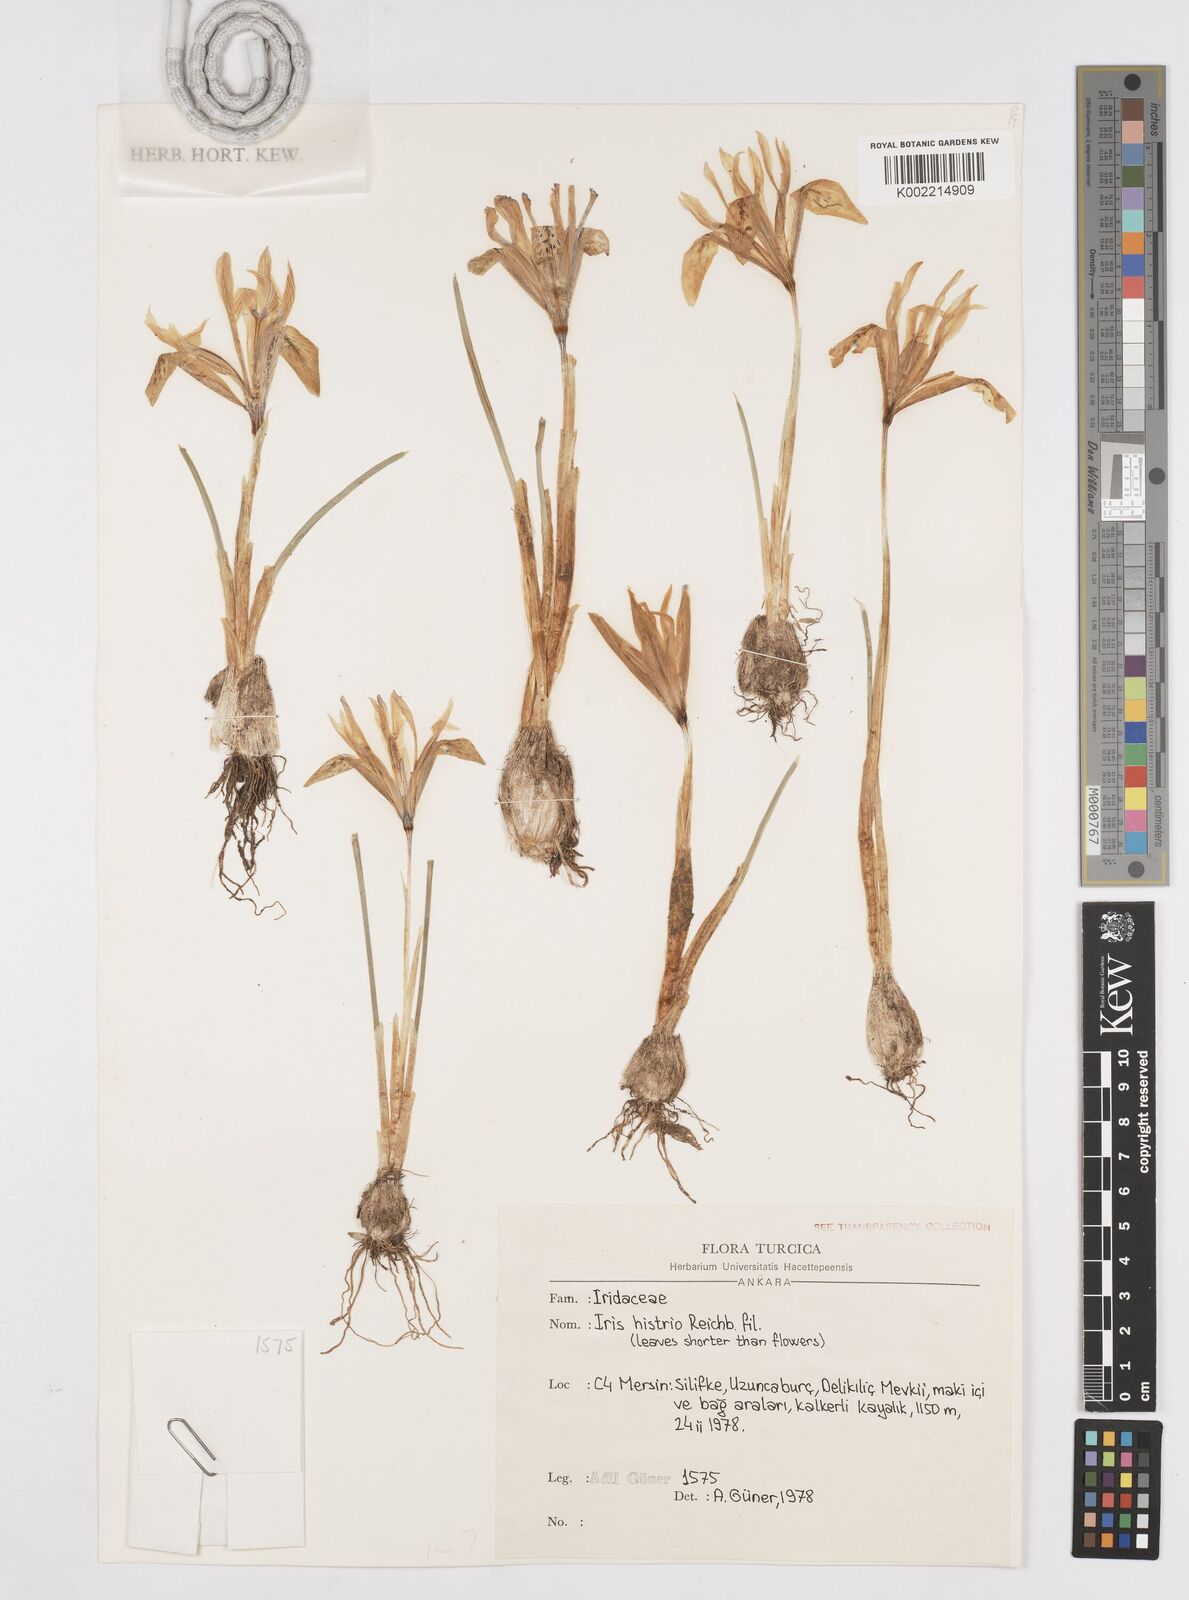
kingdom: Plantae
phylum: Tracheophyta
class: Liliopsida
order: Asparagales
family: Iridaceae
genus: Iris
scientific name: Iris histrio
